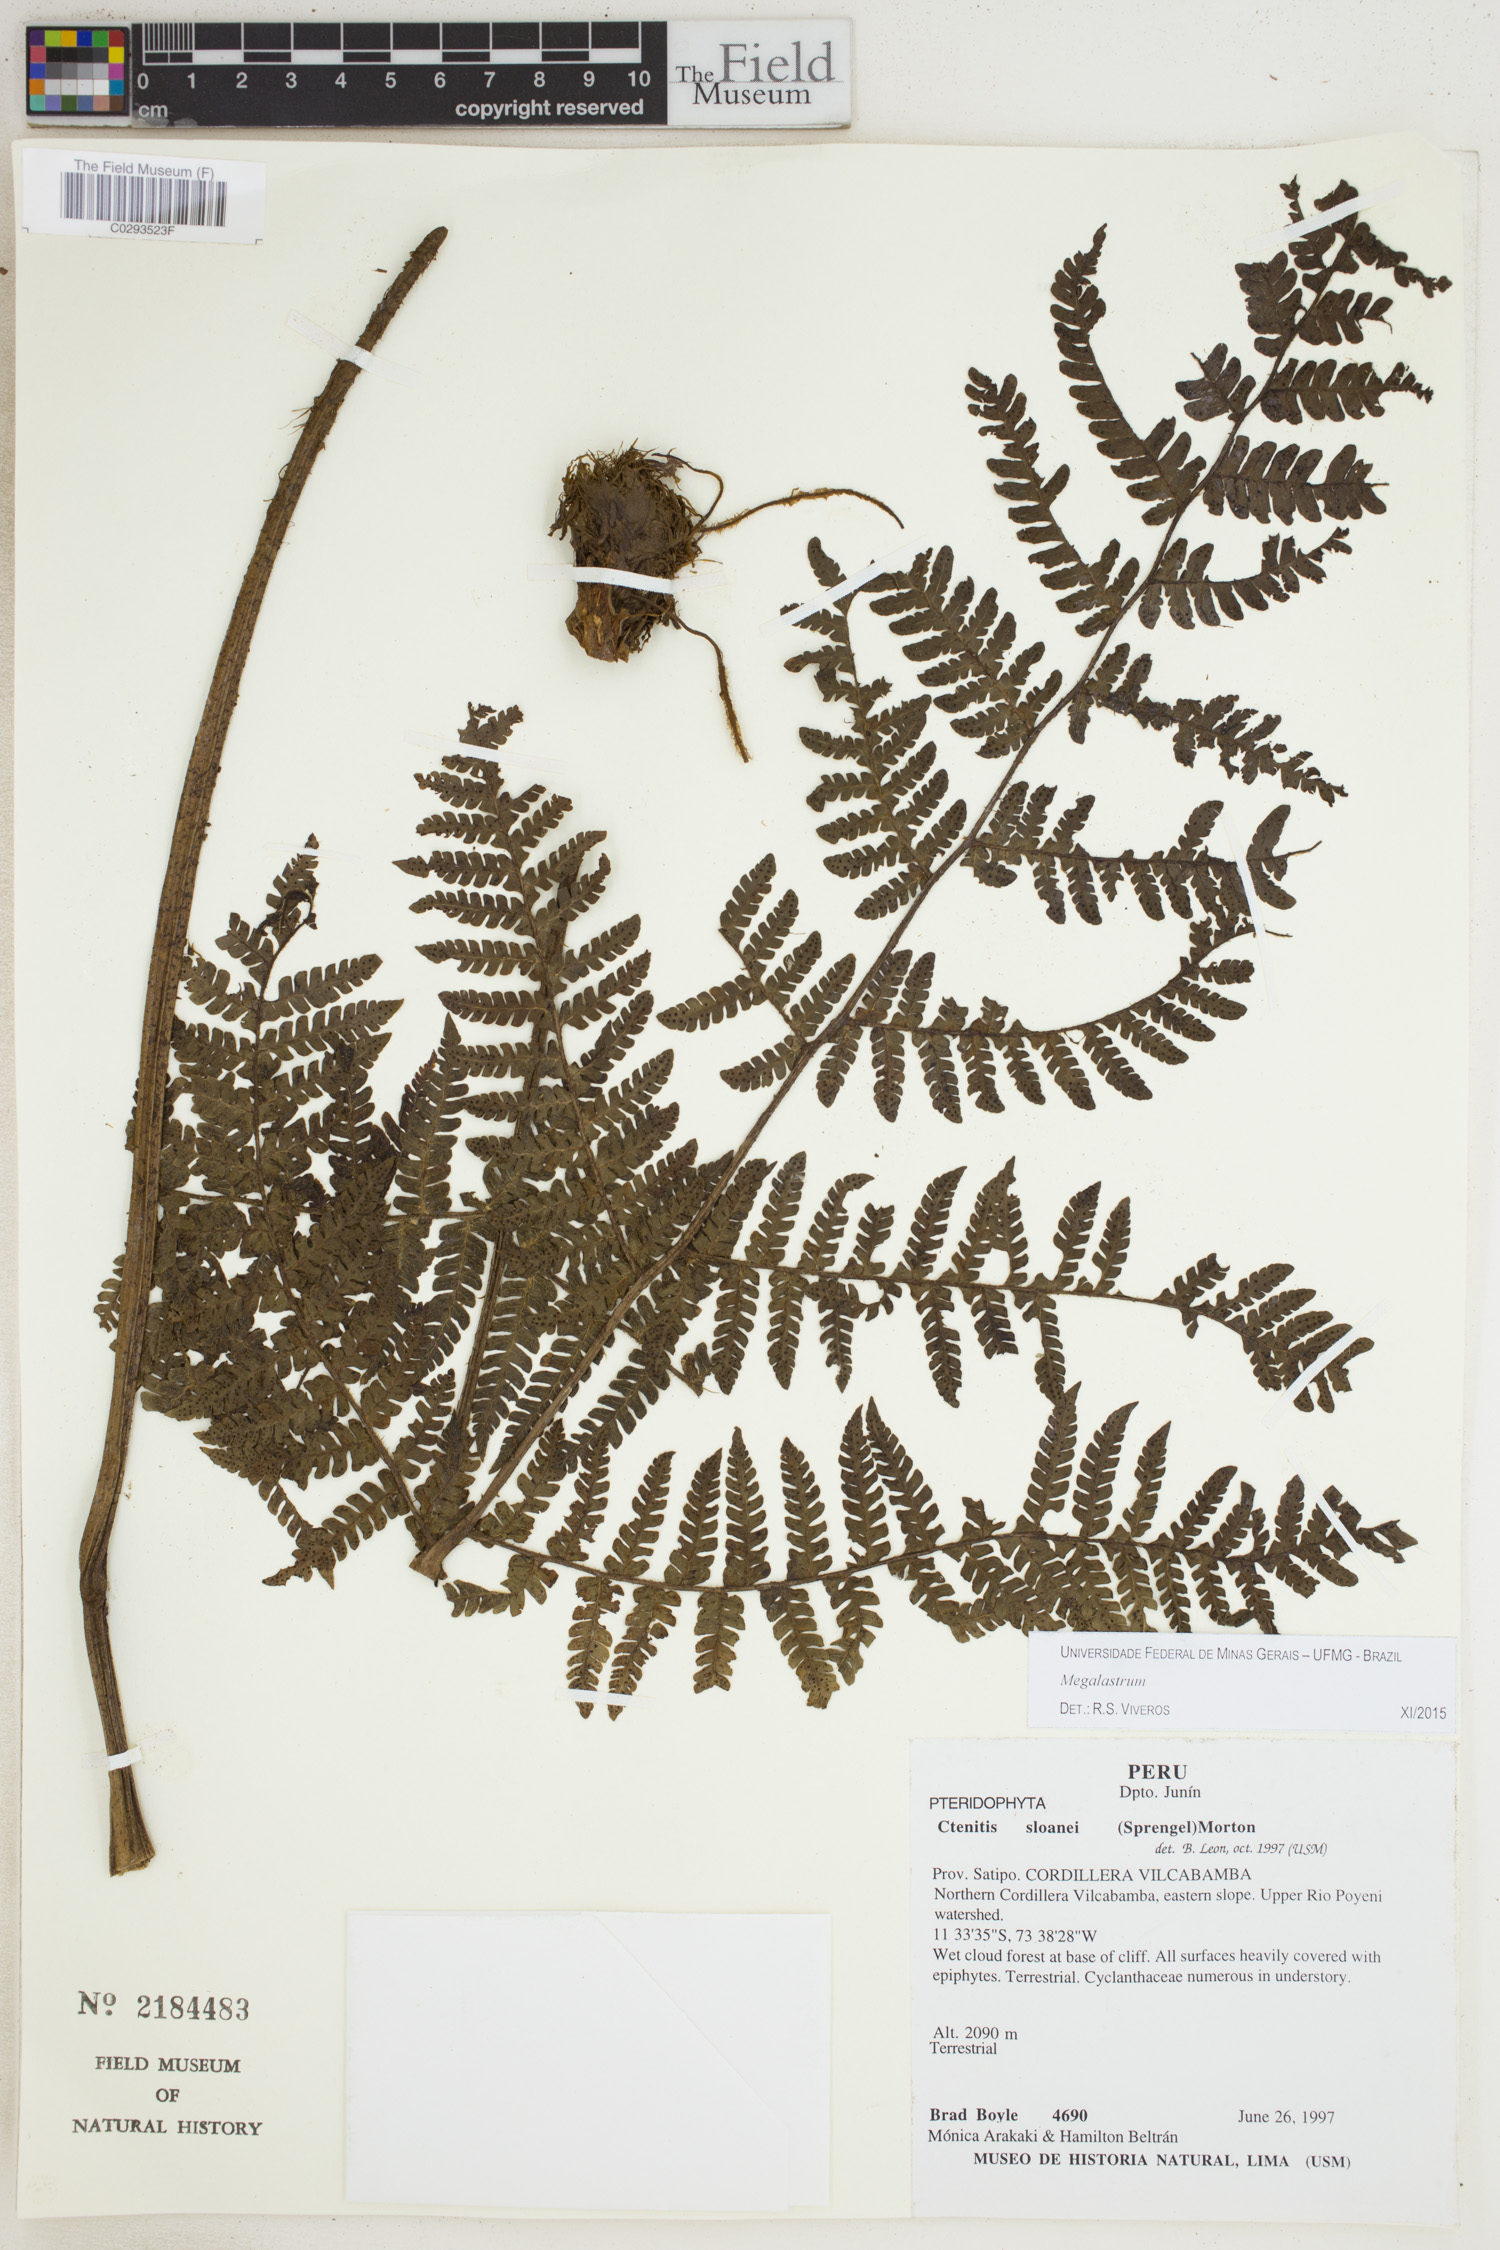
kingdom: Plantae
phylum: Tracheophyta
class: Polypodiopsida
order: Polypodiales
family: Dryopteridaceae
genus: Megalastrum
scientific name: Megalastrum
